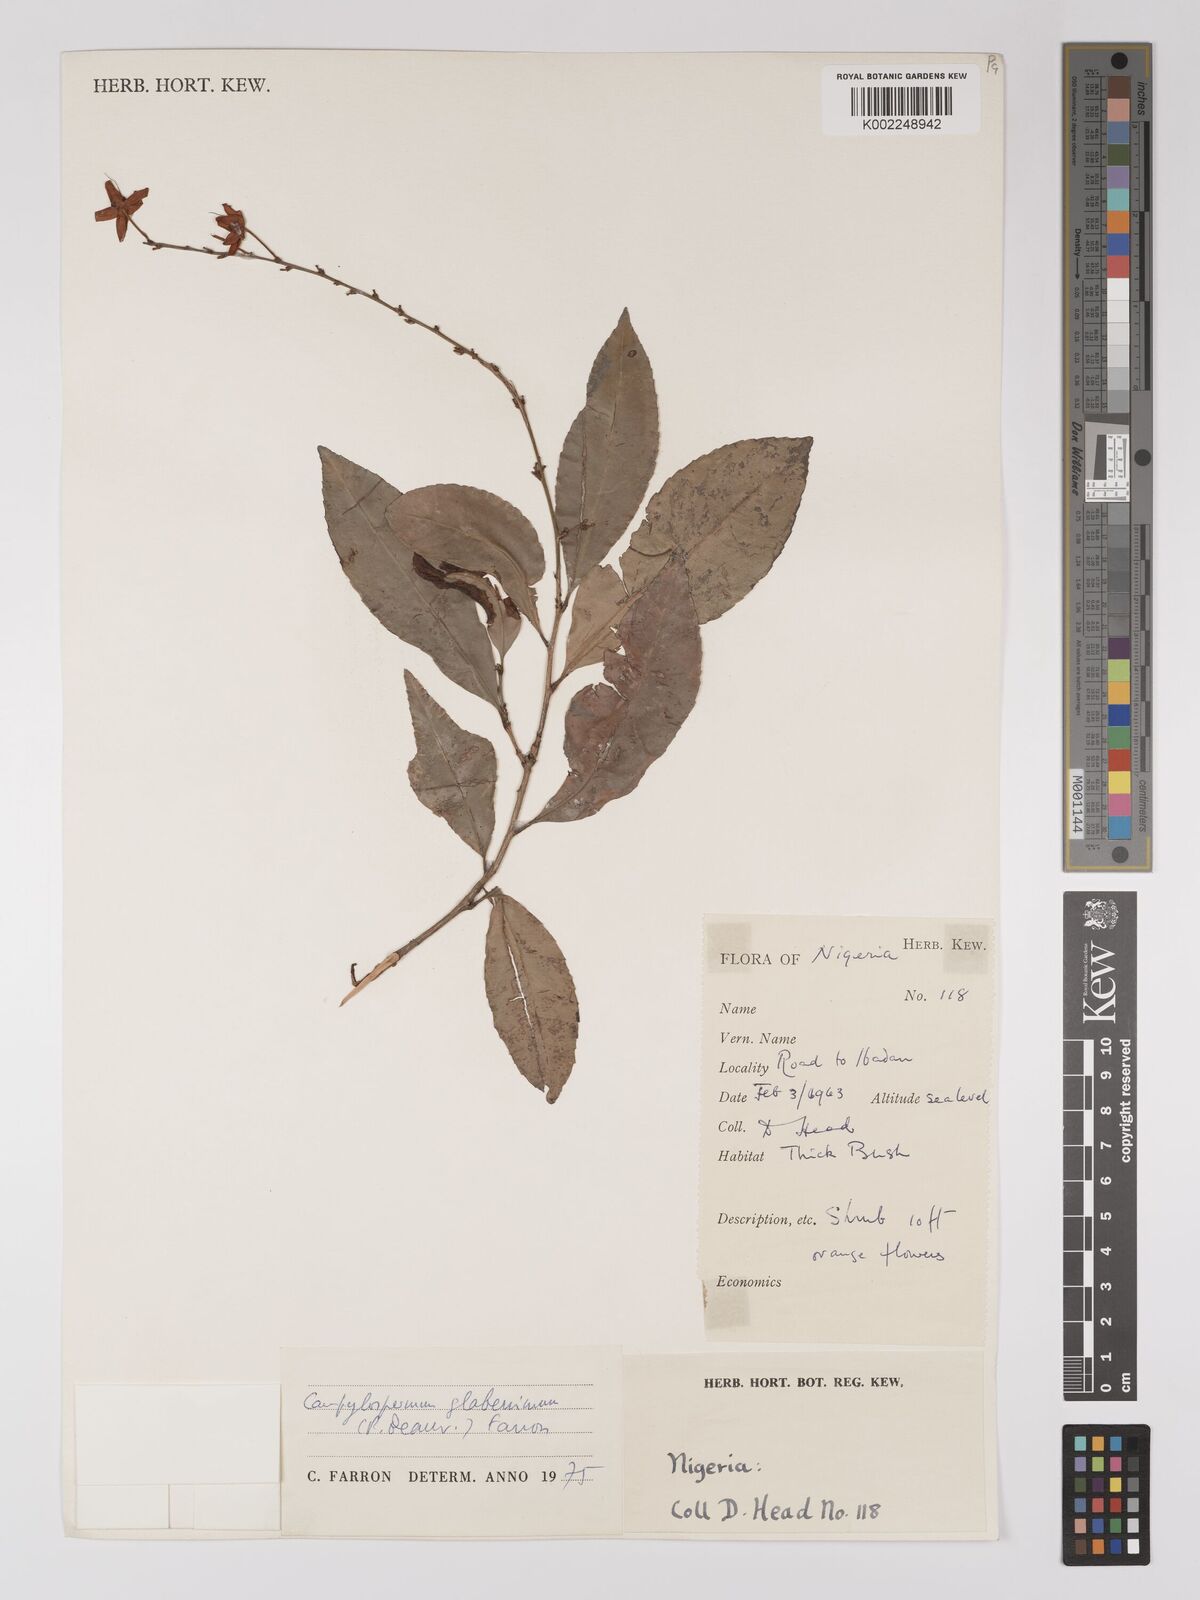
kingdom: Plantae
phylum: Tracheophyta
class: Magnoliopsida
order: Malpighiales
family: Ochnaceae
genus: Campylospermum
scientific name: Campylospermum glaberrimum
